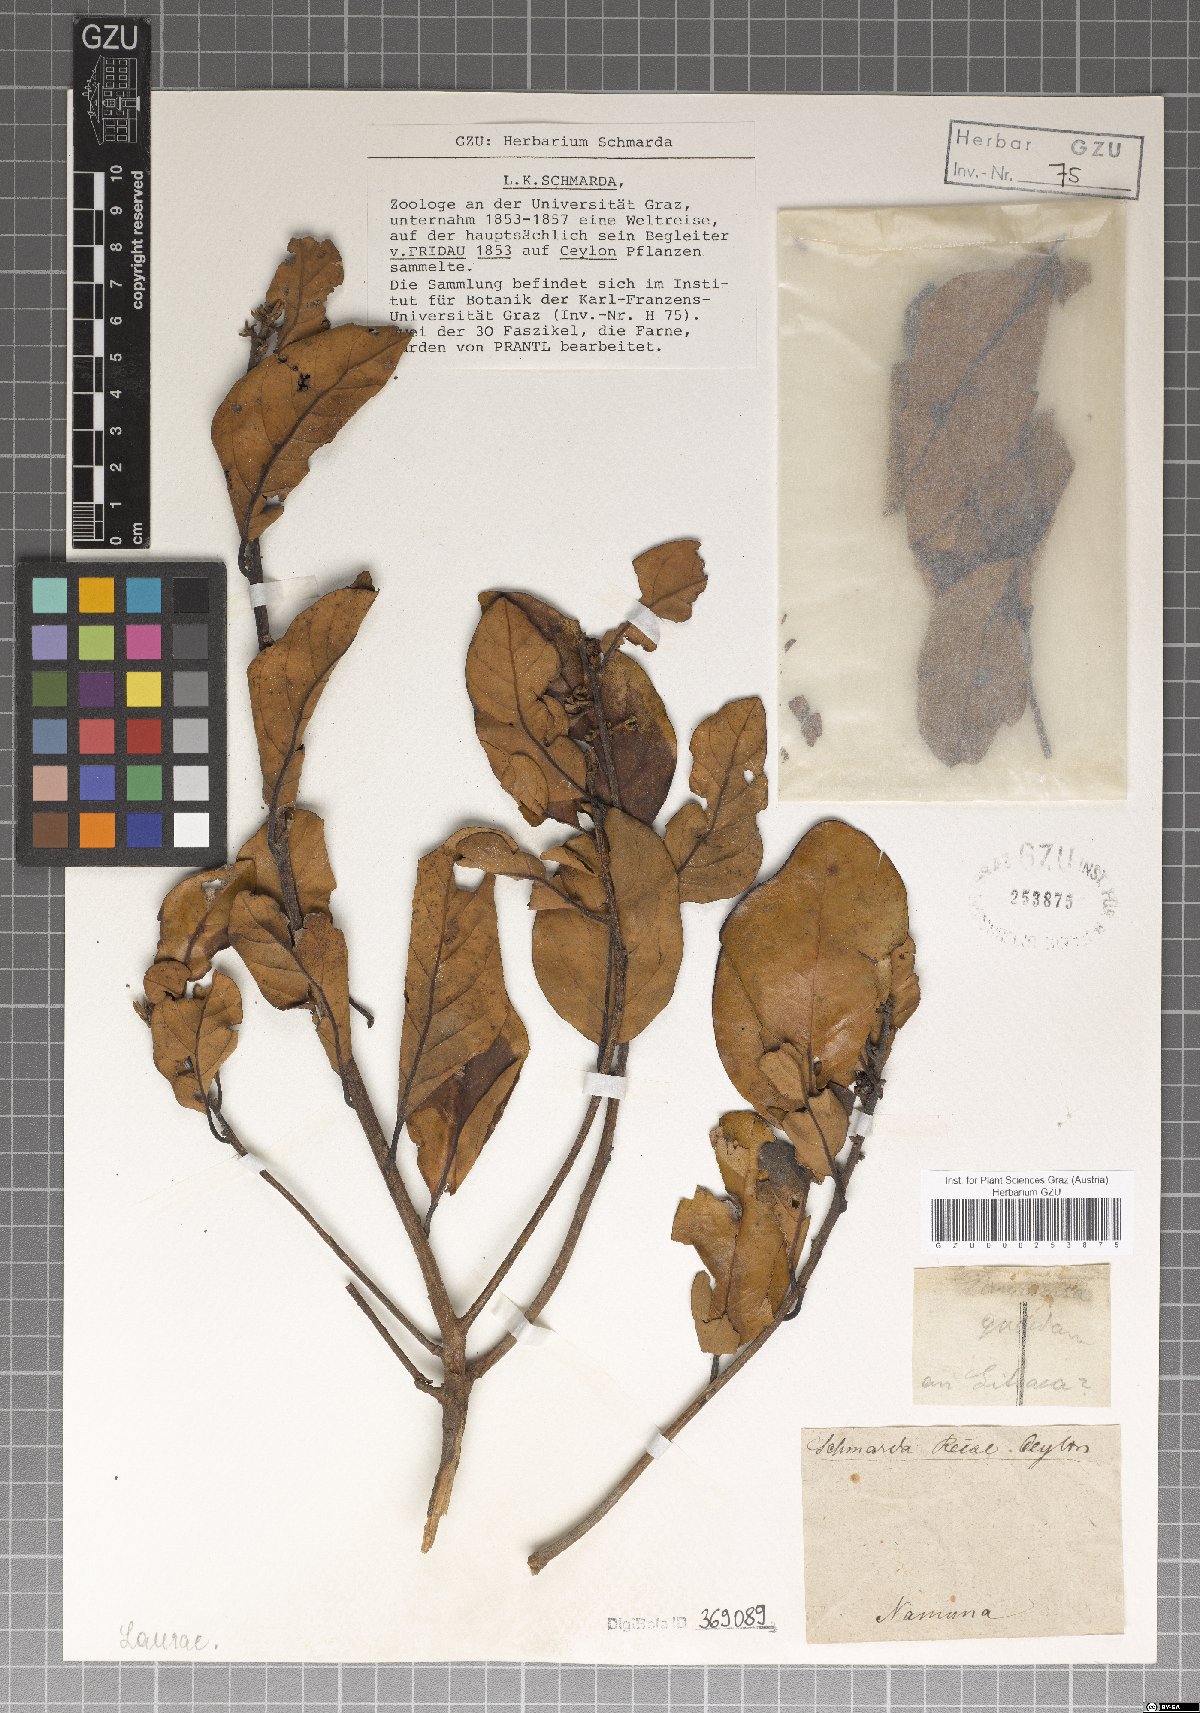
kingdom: Plantae
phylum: Tracheophyta
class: Magnoliopsida
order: Laurales
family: Lauraceae
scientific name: Lauraceae
